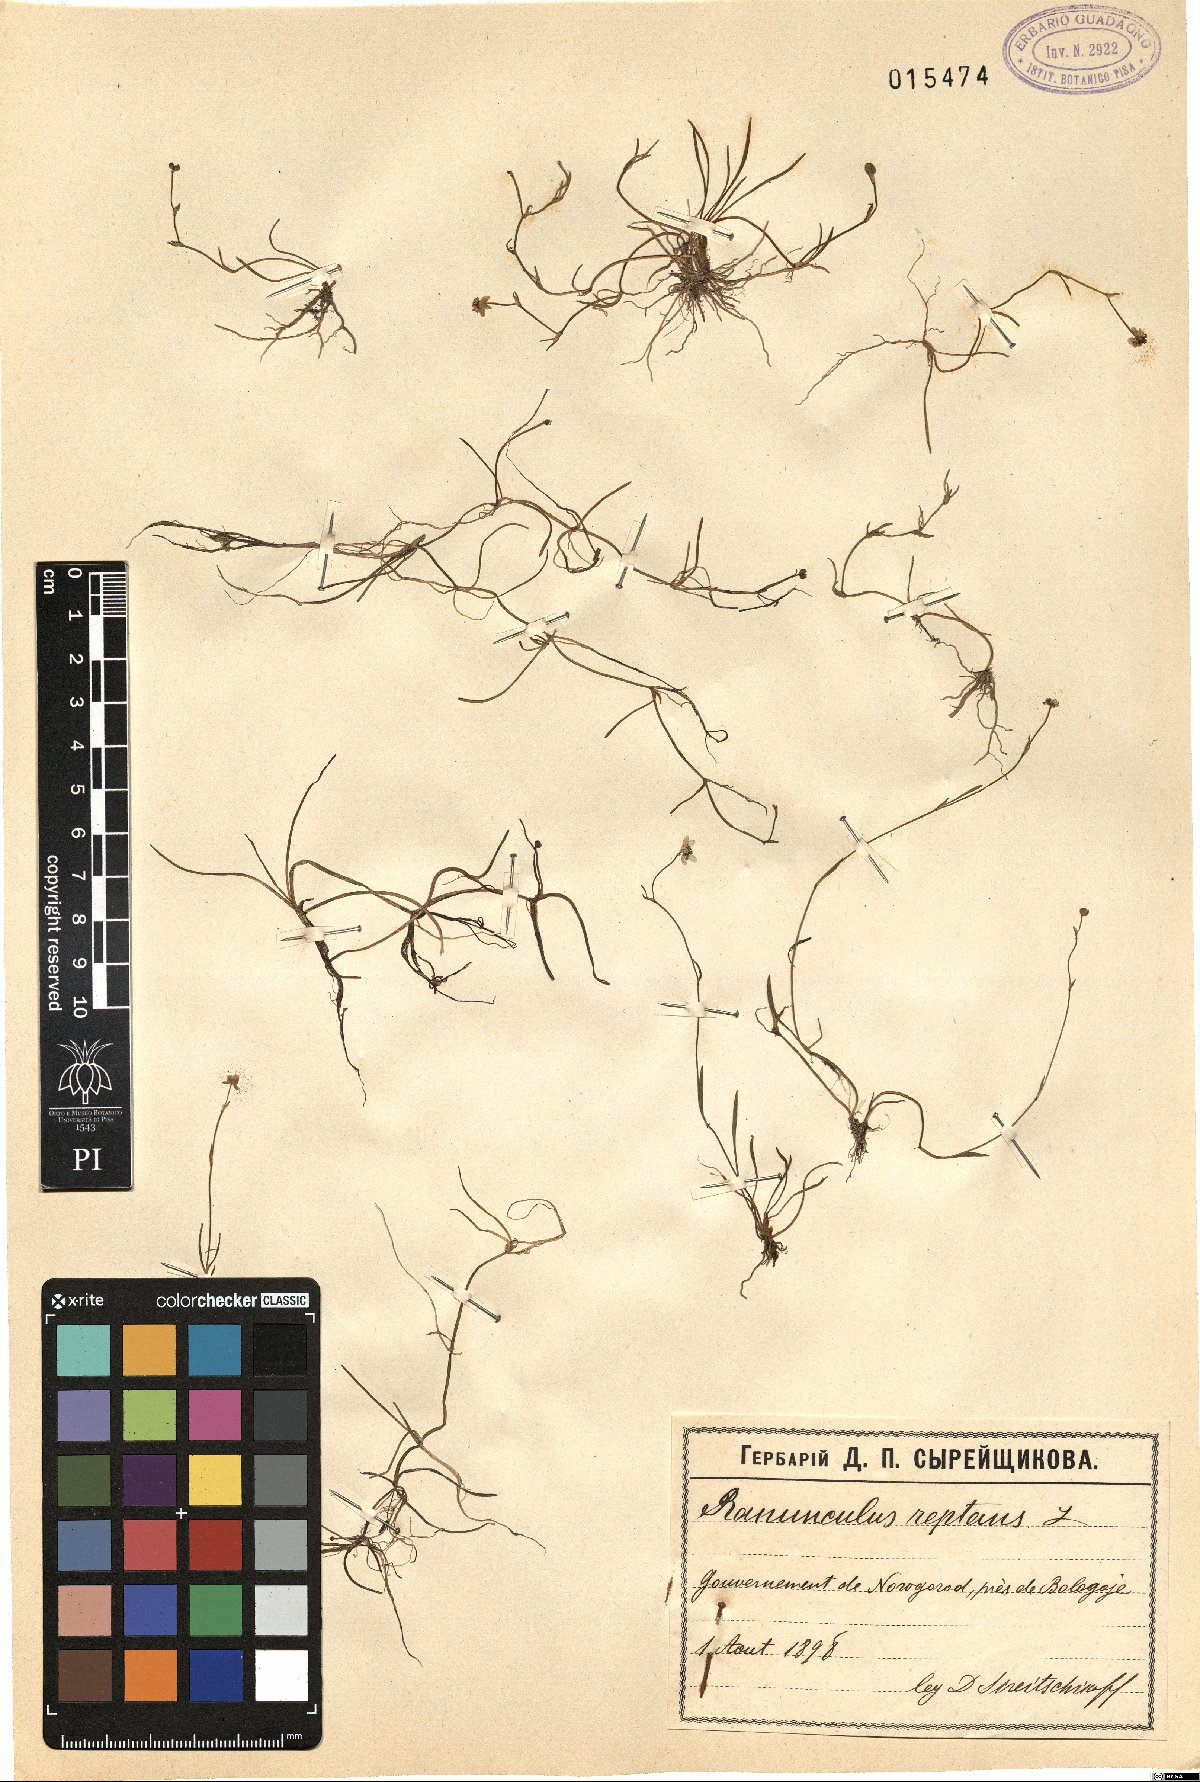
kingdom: Plantae
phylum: Tracheophyta
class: Magnoliopsida
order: Ranunculales
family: Ranunculaceae
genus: Ranunculus
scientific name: Ranunculus reptans
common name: Creeping spearwort
